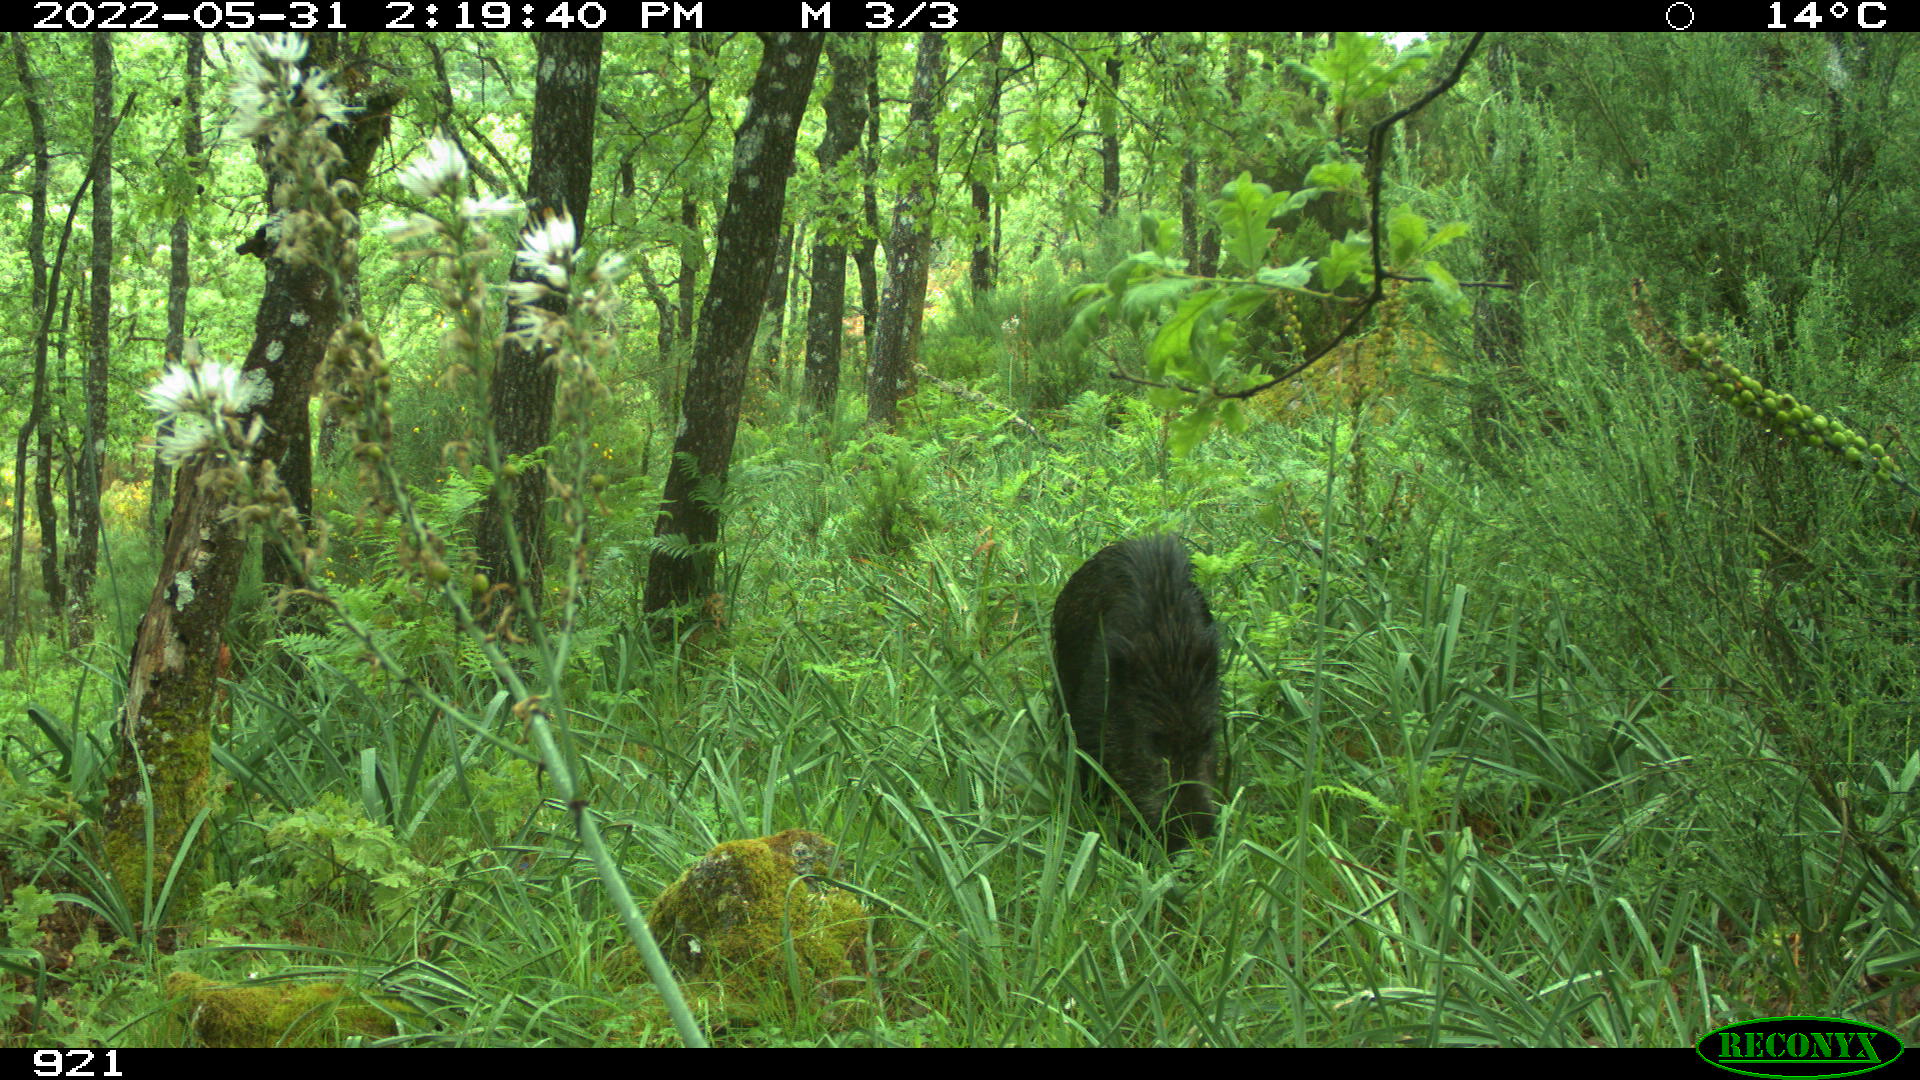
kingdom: Animalia
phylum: Chordata
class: Mammalia
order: Artiodactyla
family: Suidae
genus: Sus
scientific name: Sus scrofa
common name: Wild boar
